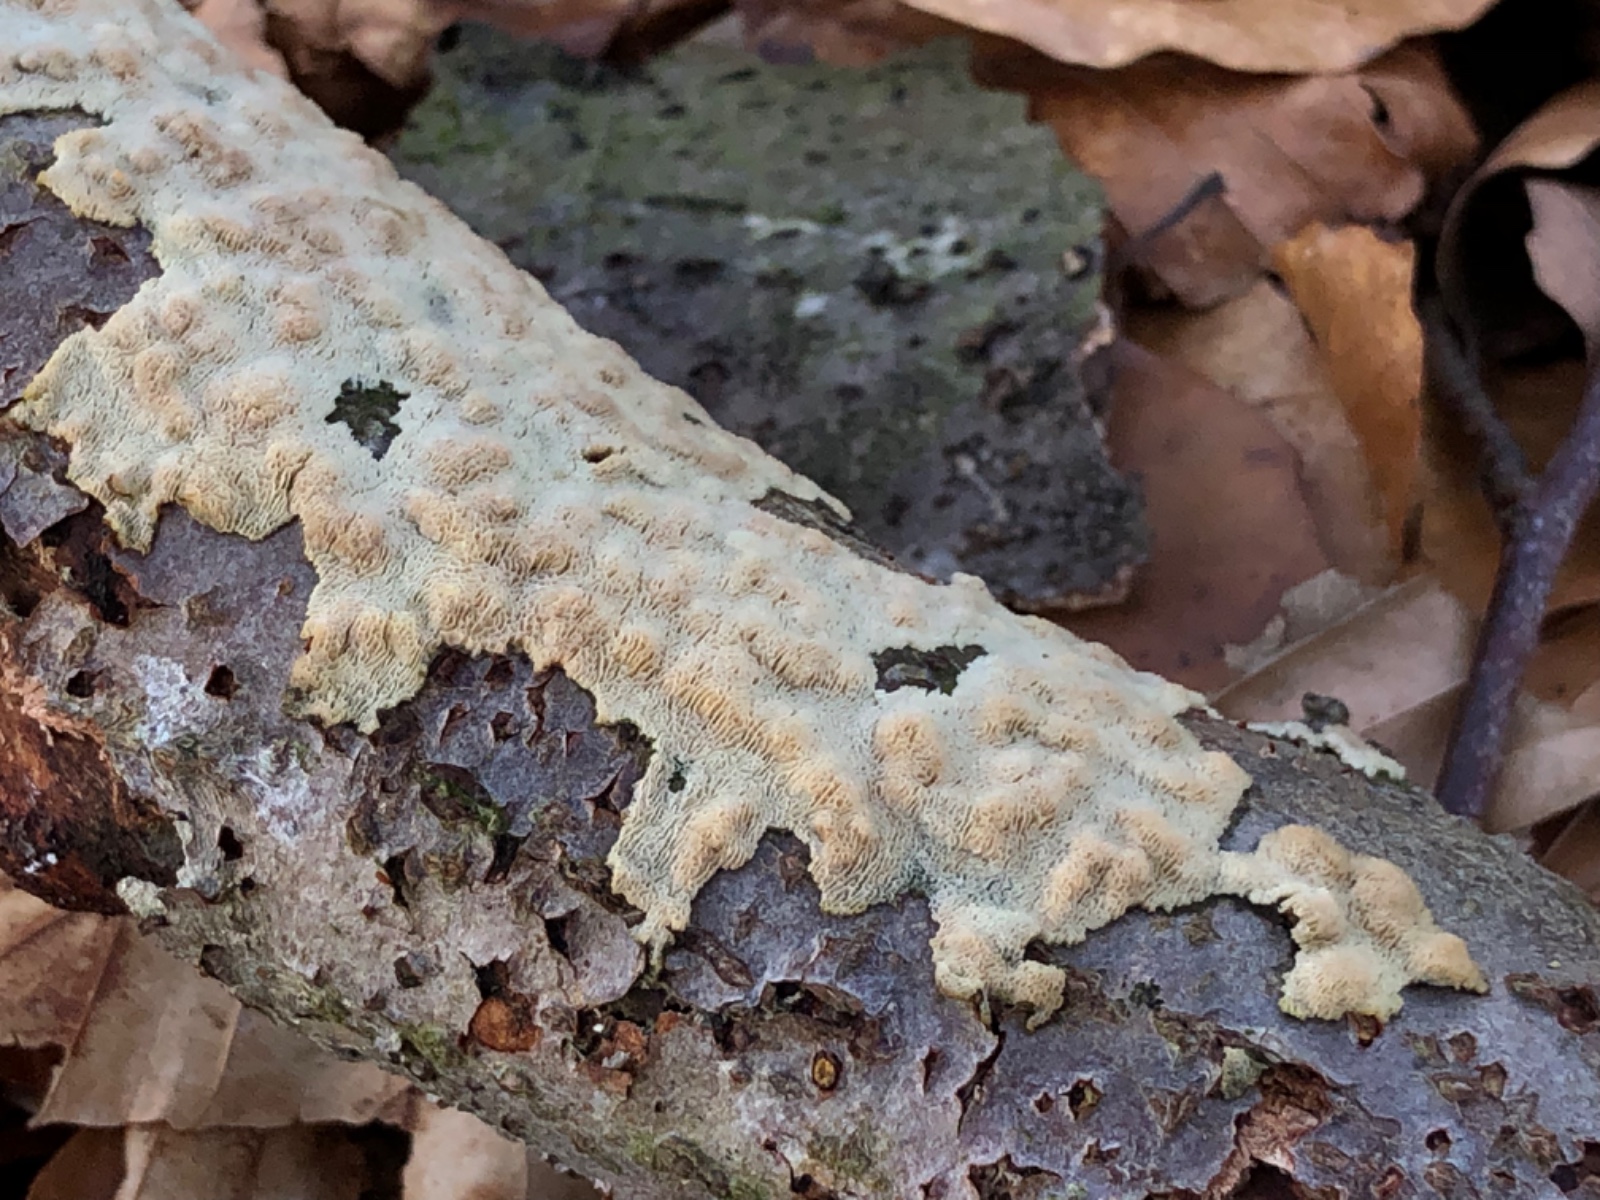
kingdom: Fungi
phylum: Basidiomycota
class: Agaricomycetes
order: Hymenochaetales
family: Schizoporaceae
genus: Xylodon
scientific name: Xylodon subtropicus
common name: labyrint-tandsvamp
